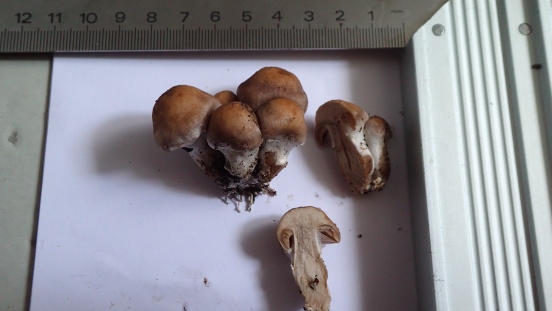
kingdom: Fungi
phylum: Basidiomycota
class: Agaricomycetes
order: Agaricales
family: Cortinariaceae
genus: Cortinarius
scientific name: Cortinarius
